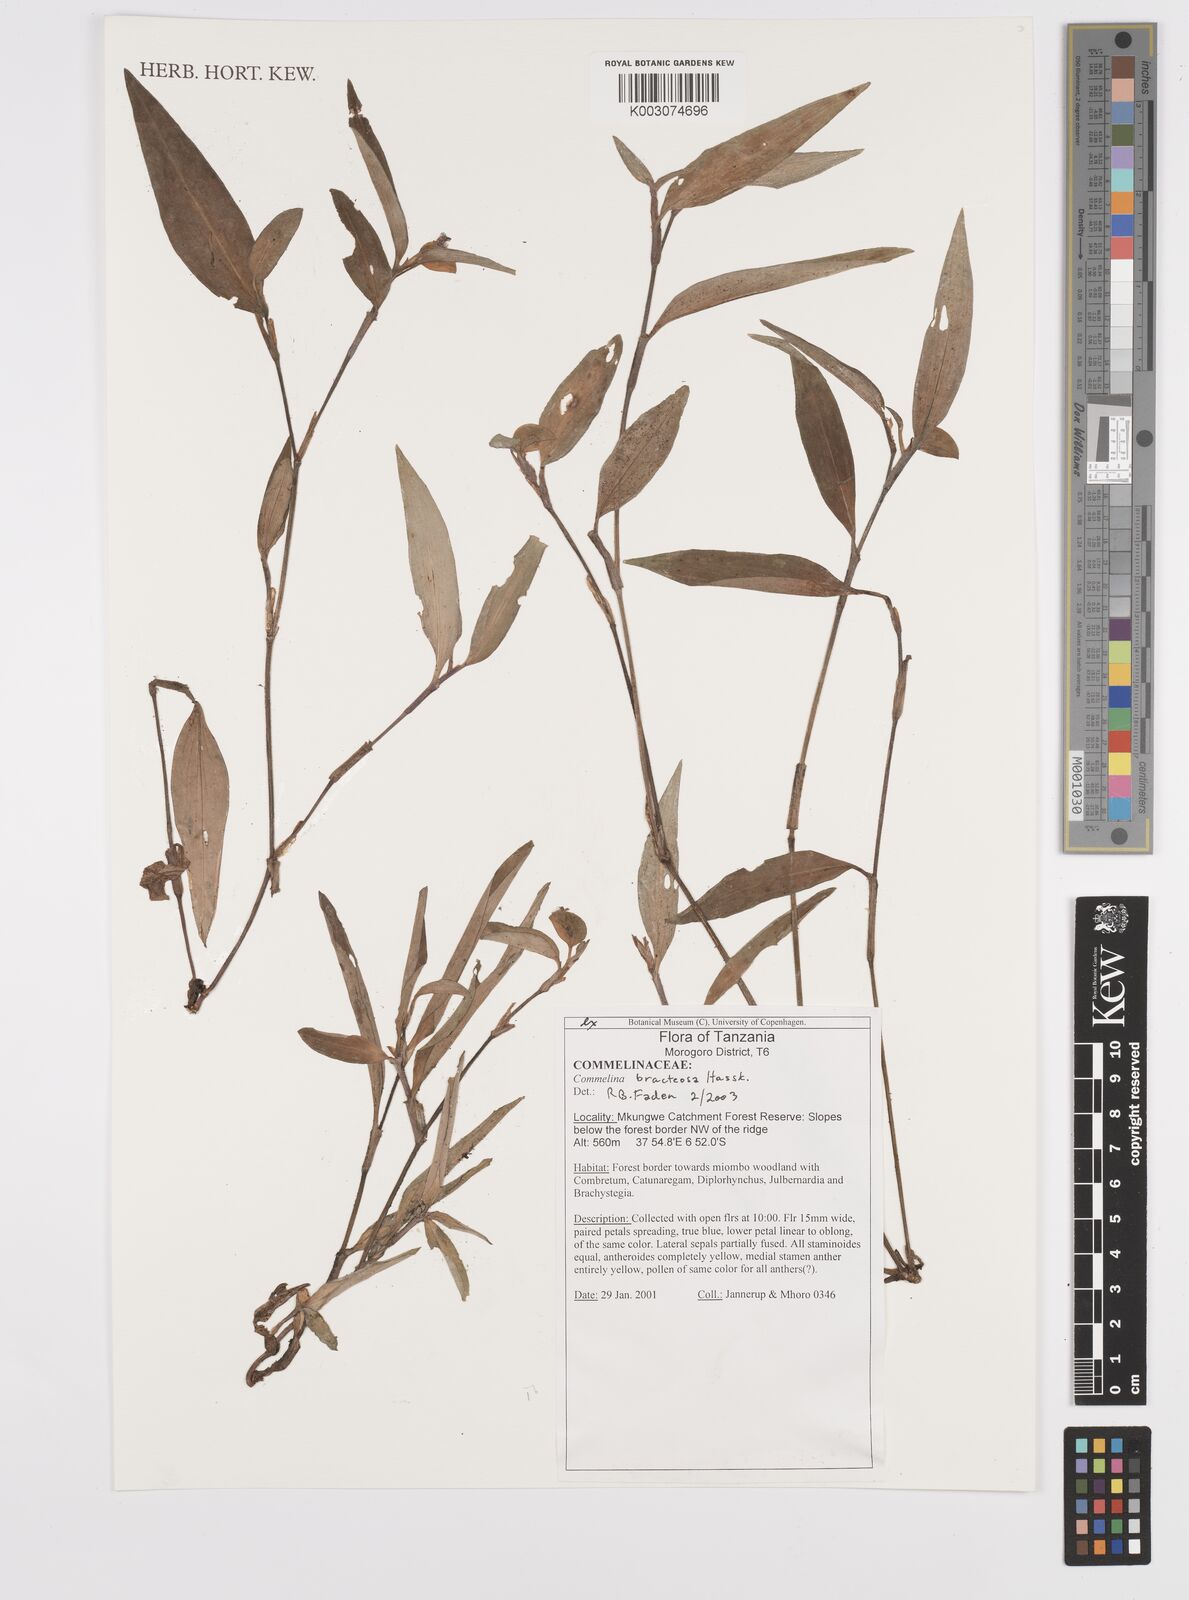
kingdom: Plantae
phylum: Tracheophyta
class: Liliopsida
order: Commelinales
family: Commelinaceae
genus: Commelina
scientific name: Commelina bracteosa
